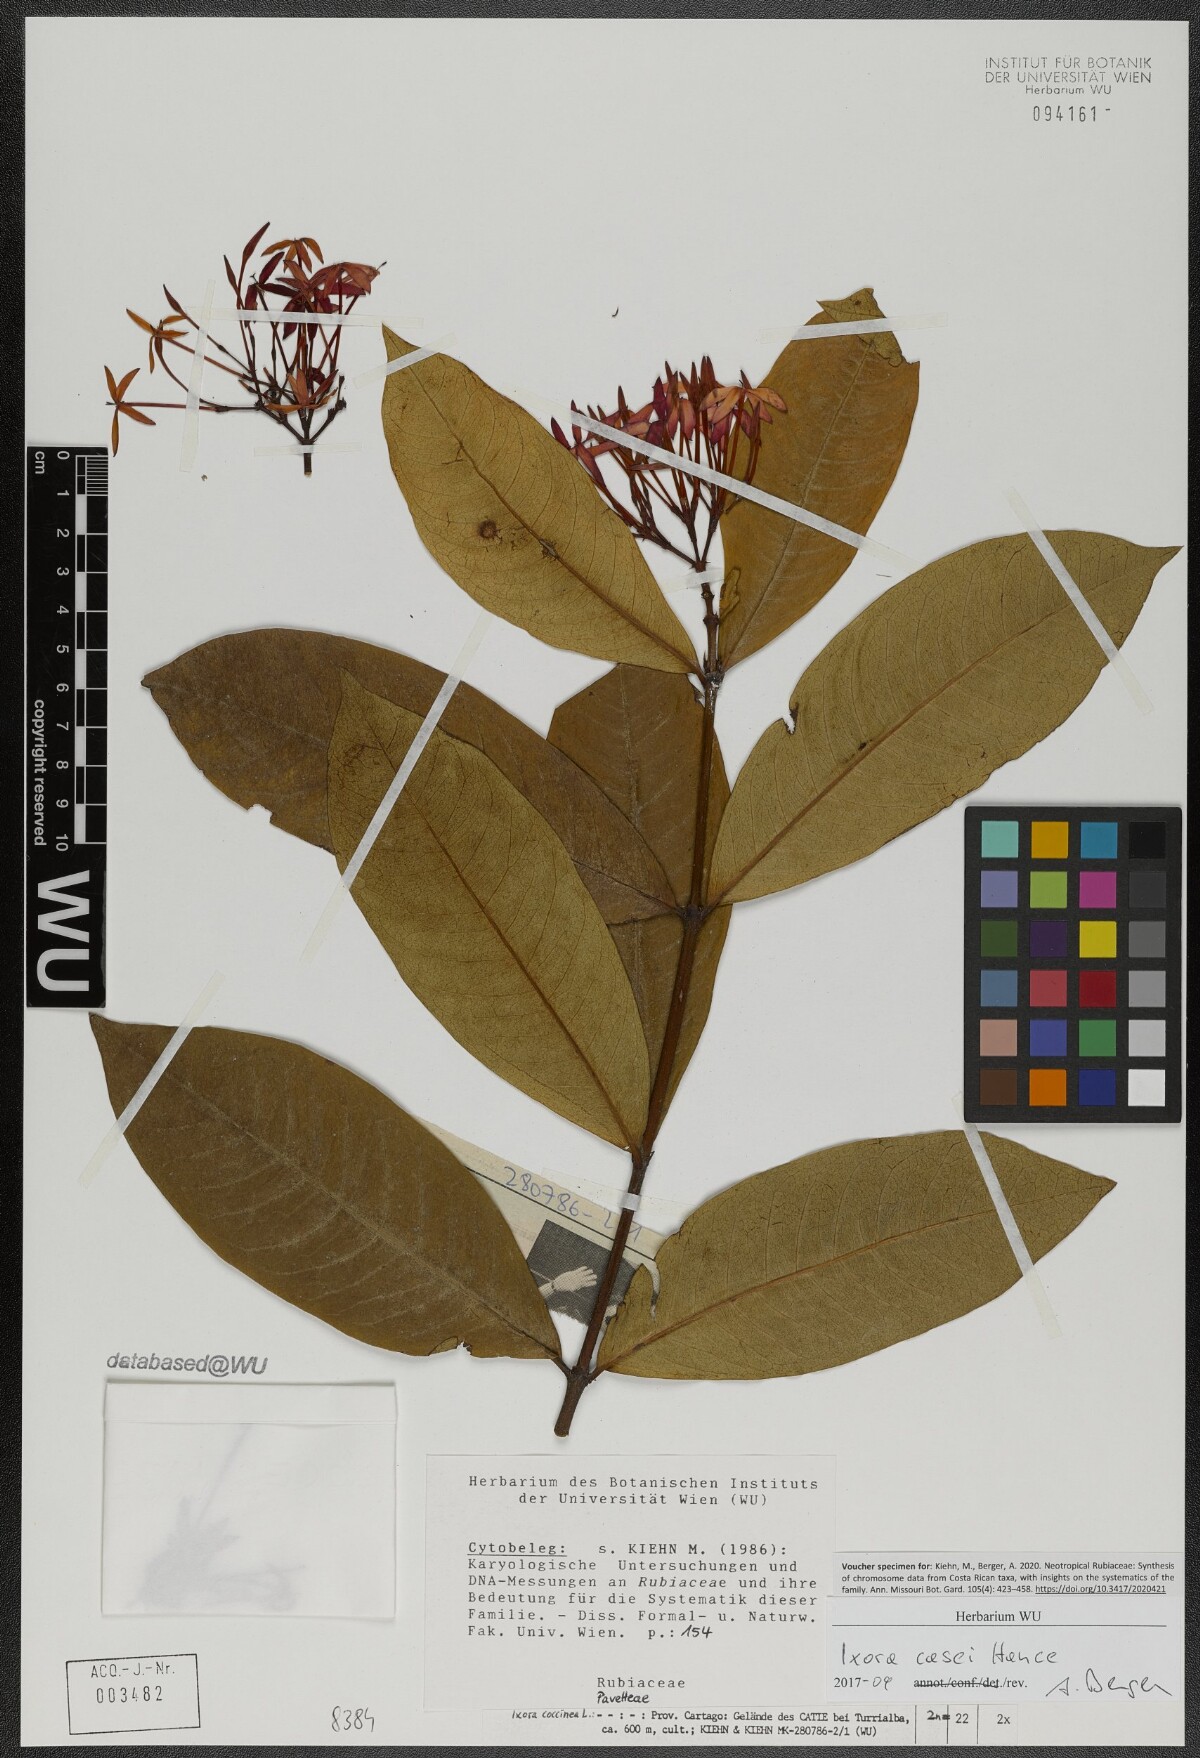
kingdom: Plantae
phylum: Tracheophyta
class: Magnoliopsida
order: Gentianales
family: Rubiaceae
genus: Ixora
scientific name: Ixora casei
